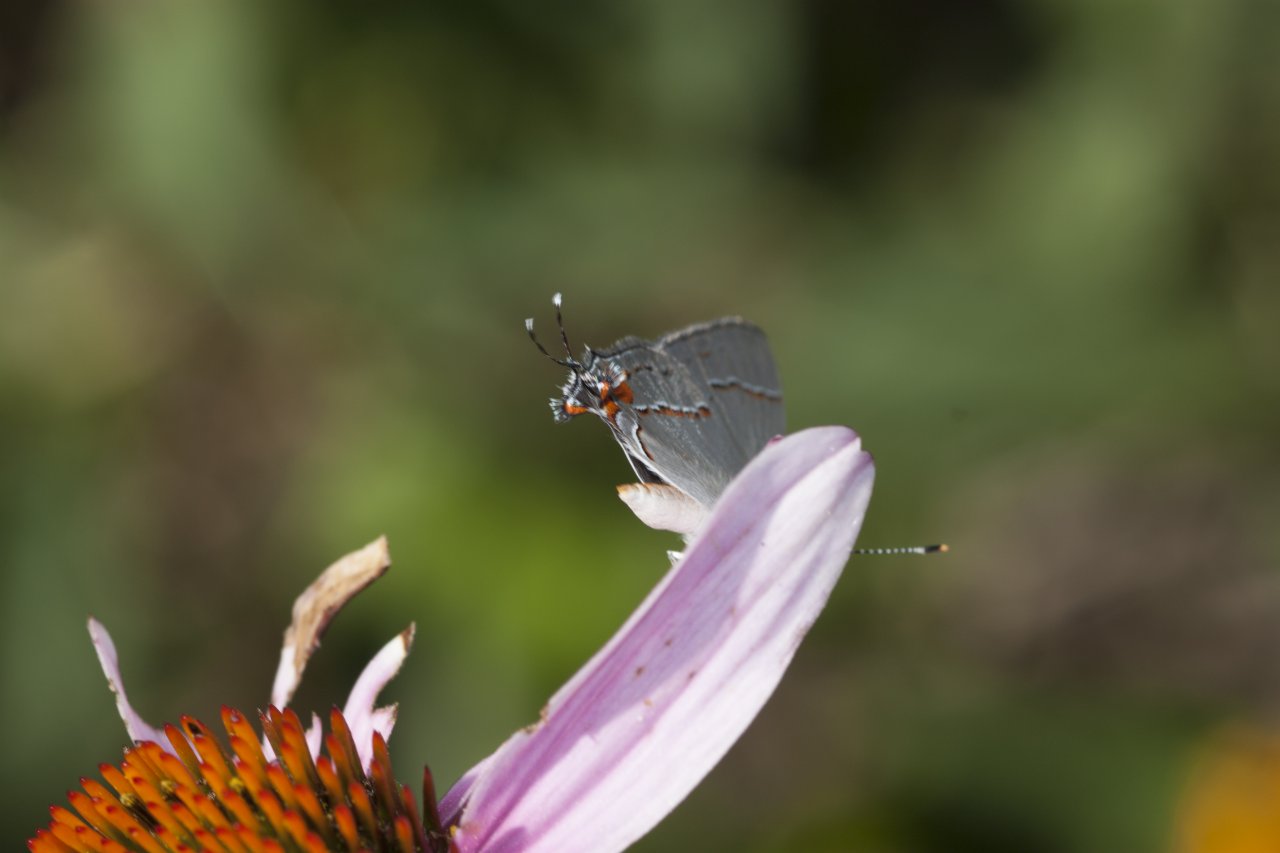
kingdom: Animalia
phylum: Arthropoda
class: Insecta
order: Lepidoptera
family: Lycaenidae
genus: Strymon
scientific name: Strymon melinus
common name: Gray Hairstreak
